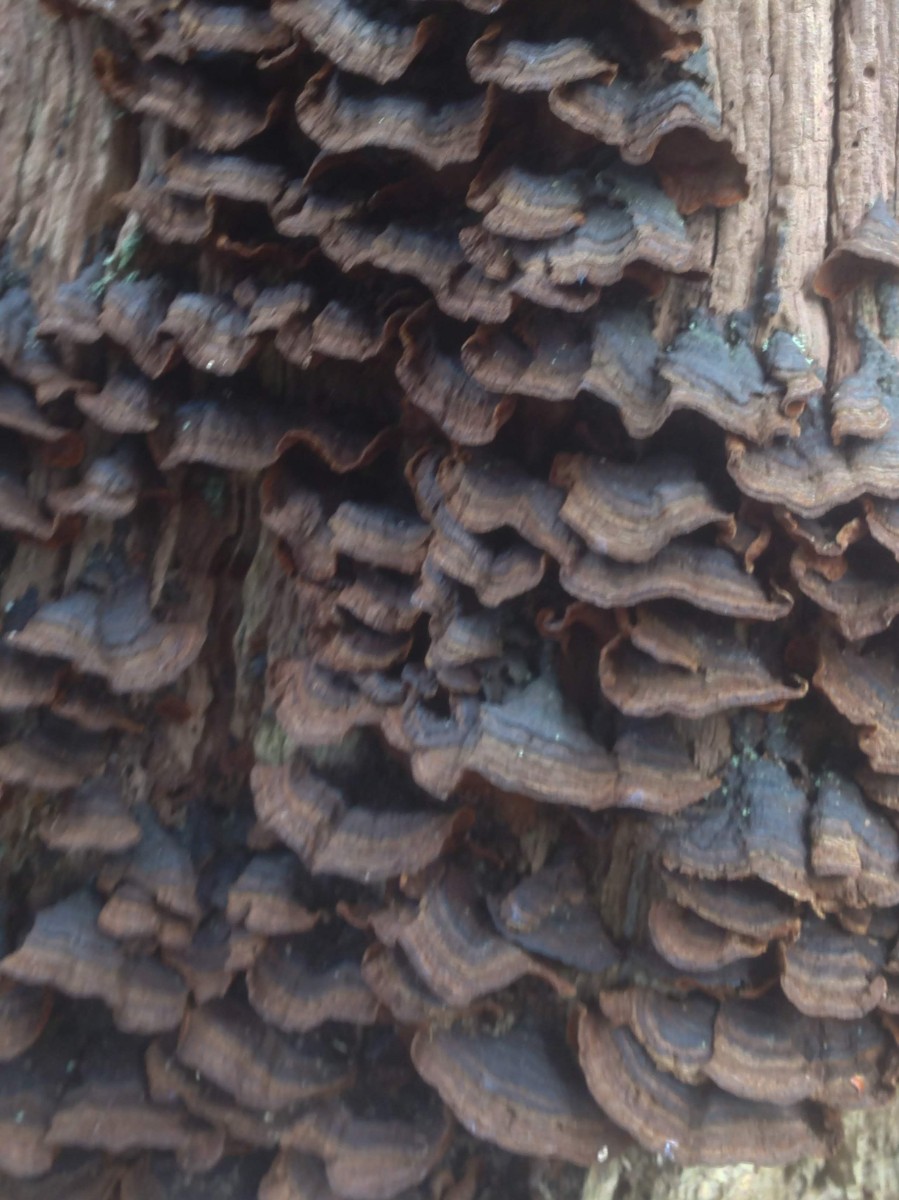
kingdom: Fungi
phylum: Basidiomycota
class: Agaricomycetes
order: Hymenochaetales
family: Hymenochaetaceae
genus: Hymenochaete
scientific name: Hymenochaete rubiginosa
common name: stiv ruslædersvamp
